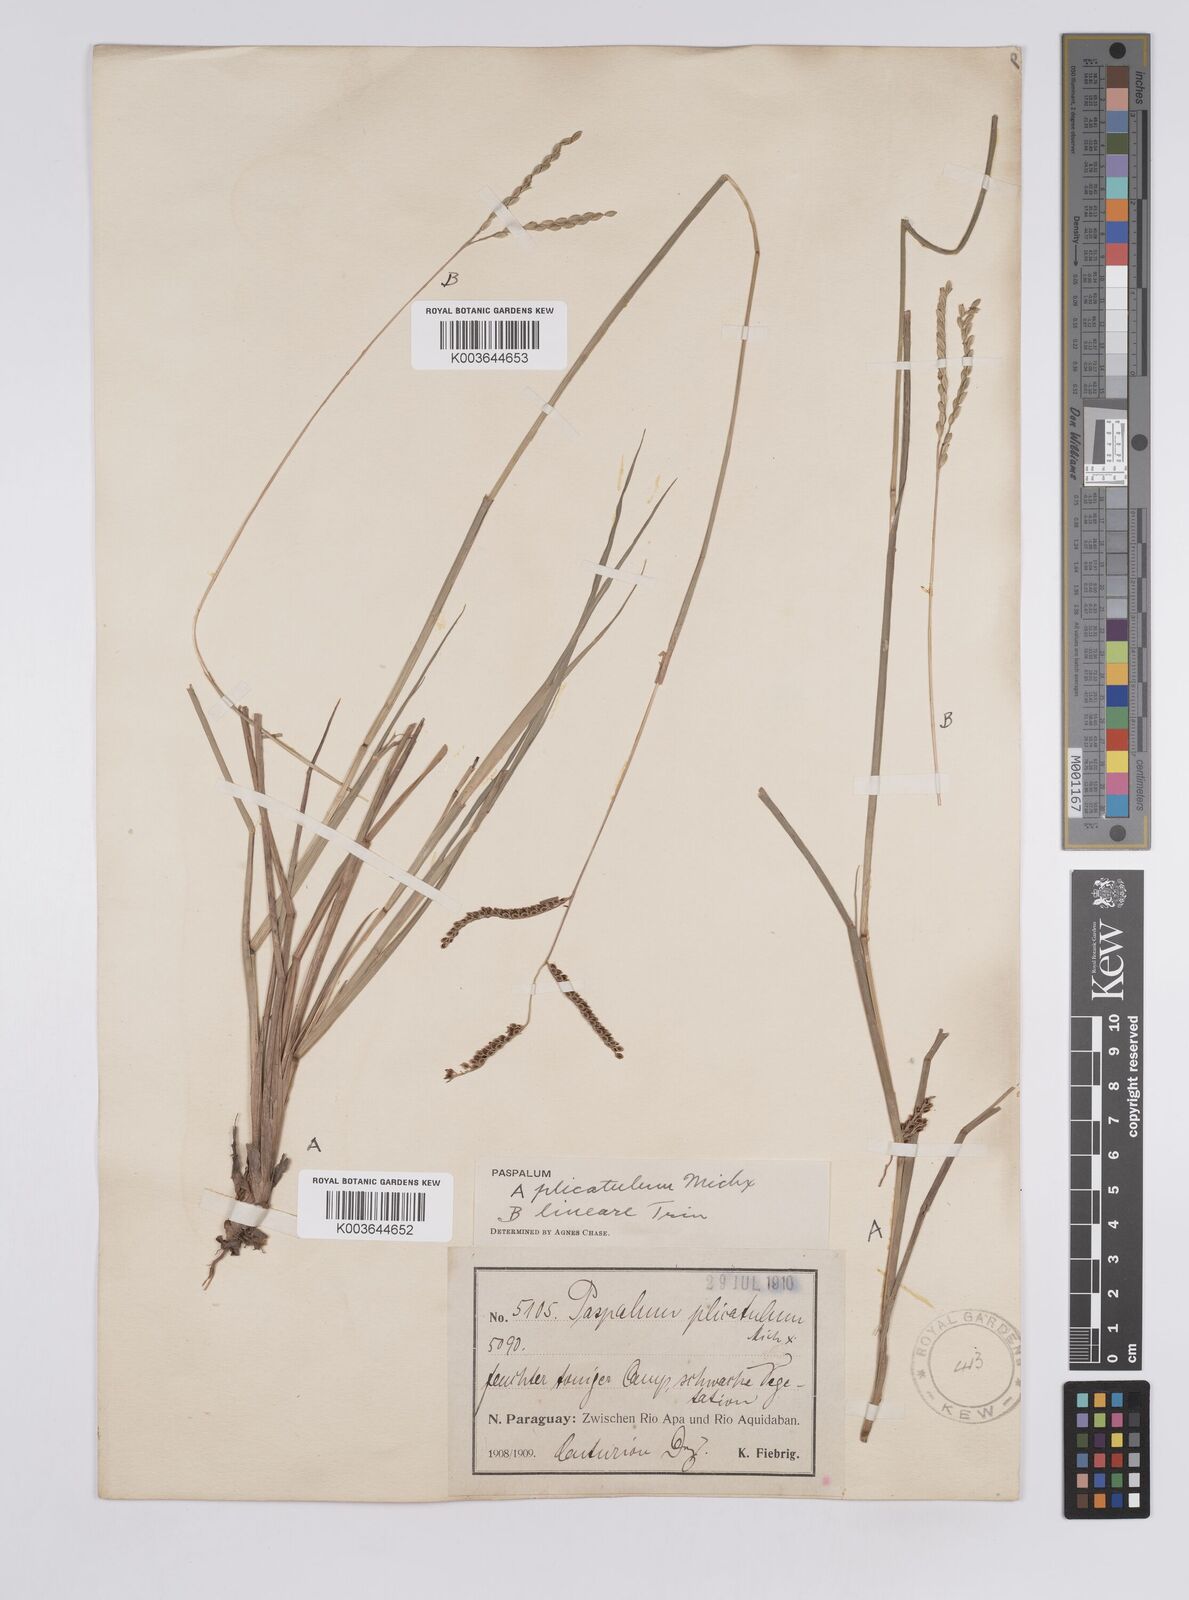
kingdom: Plantae
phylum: Tracheophyta
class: Liliopsida
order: Poales
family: Poaceae
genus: Paspalum
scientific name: Paspalum plicatulum
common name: Top paspalum
